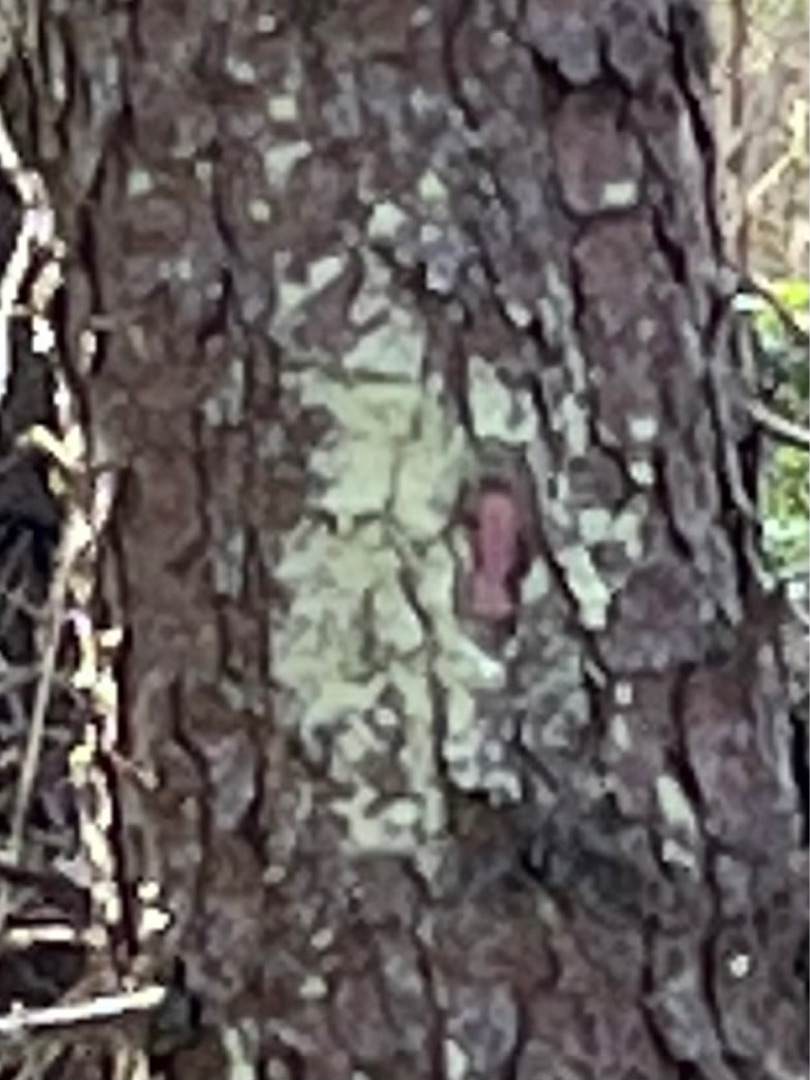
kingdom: Fungi
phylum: Ascomycota
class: Lecanoromycetes
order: Lecanorales
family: Stereocaulaceae
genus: Lepraria
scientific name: Lepraria incana
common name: Almindelig støvlav
